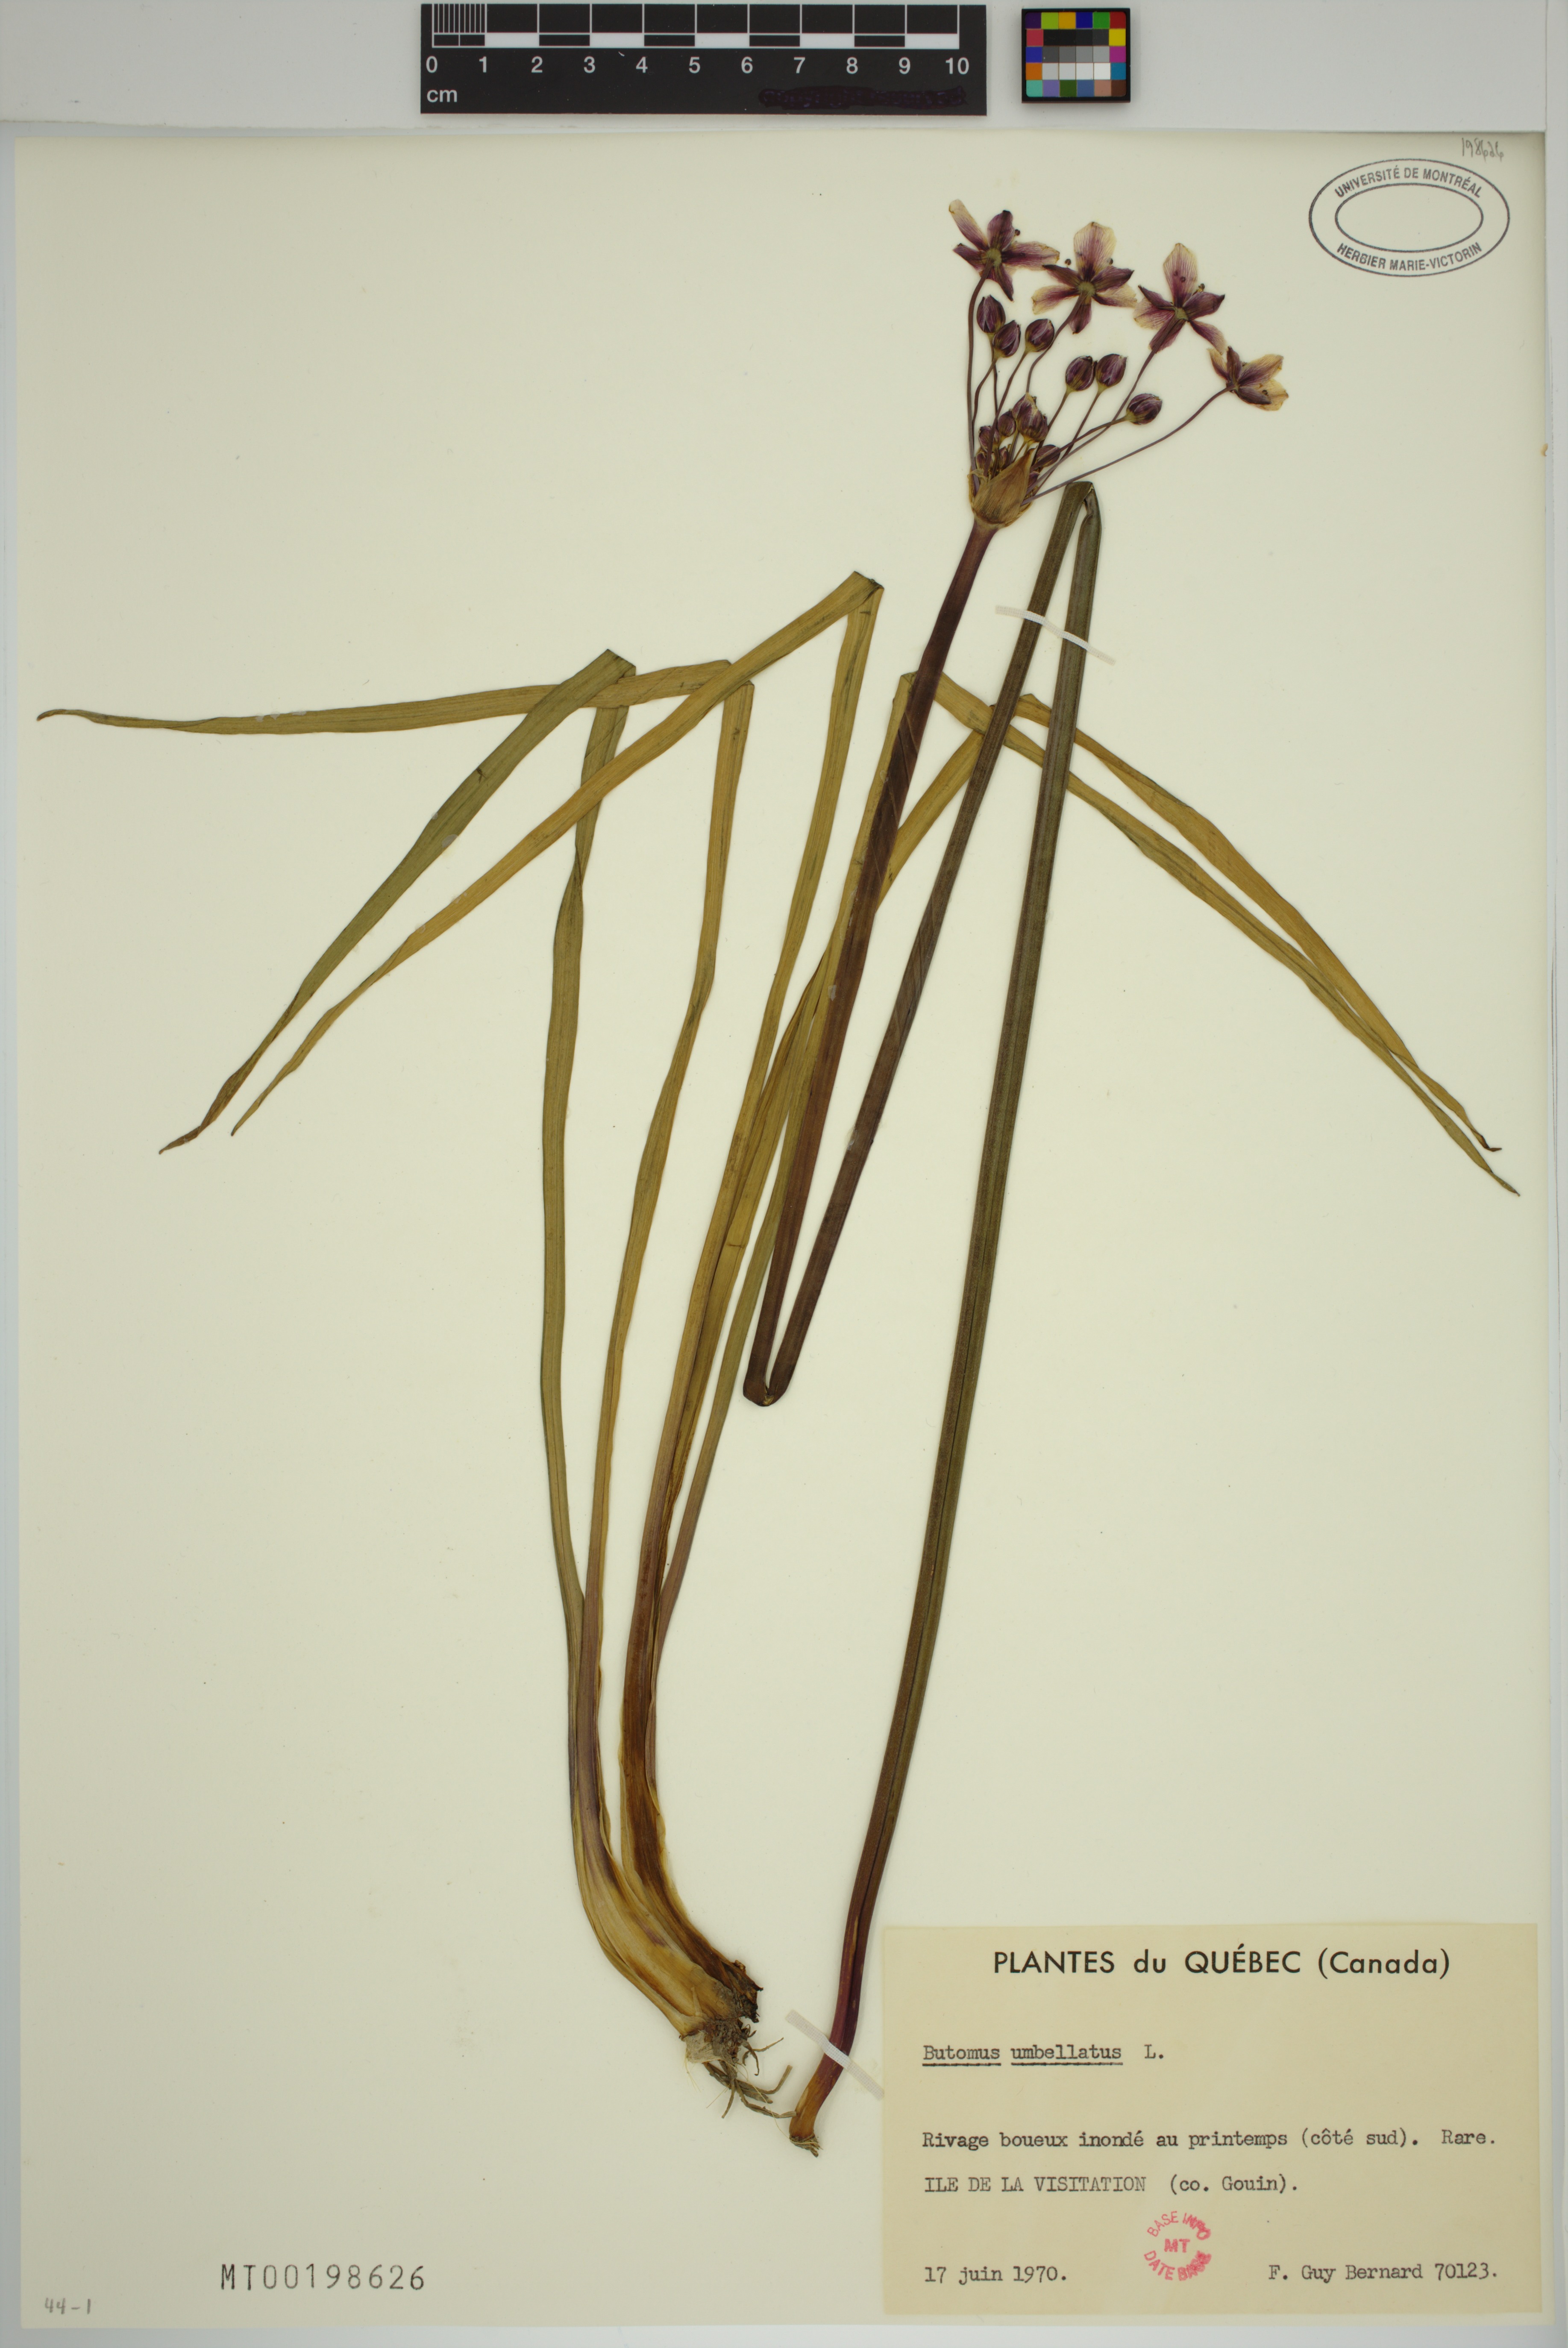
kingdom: Plantae
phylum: Tracheophyta
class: Liliopsida
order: Alismatales
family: Butomaceae
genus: Butomus
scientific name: Butomus umbellatus
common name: Flowering-rush
